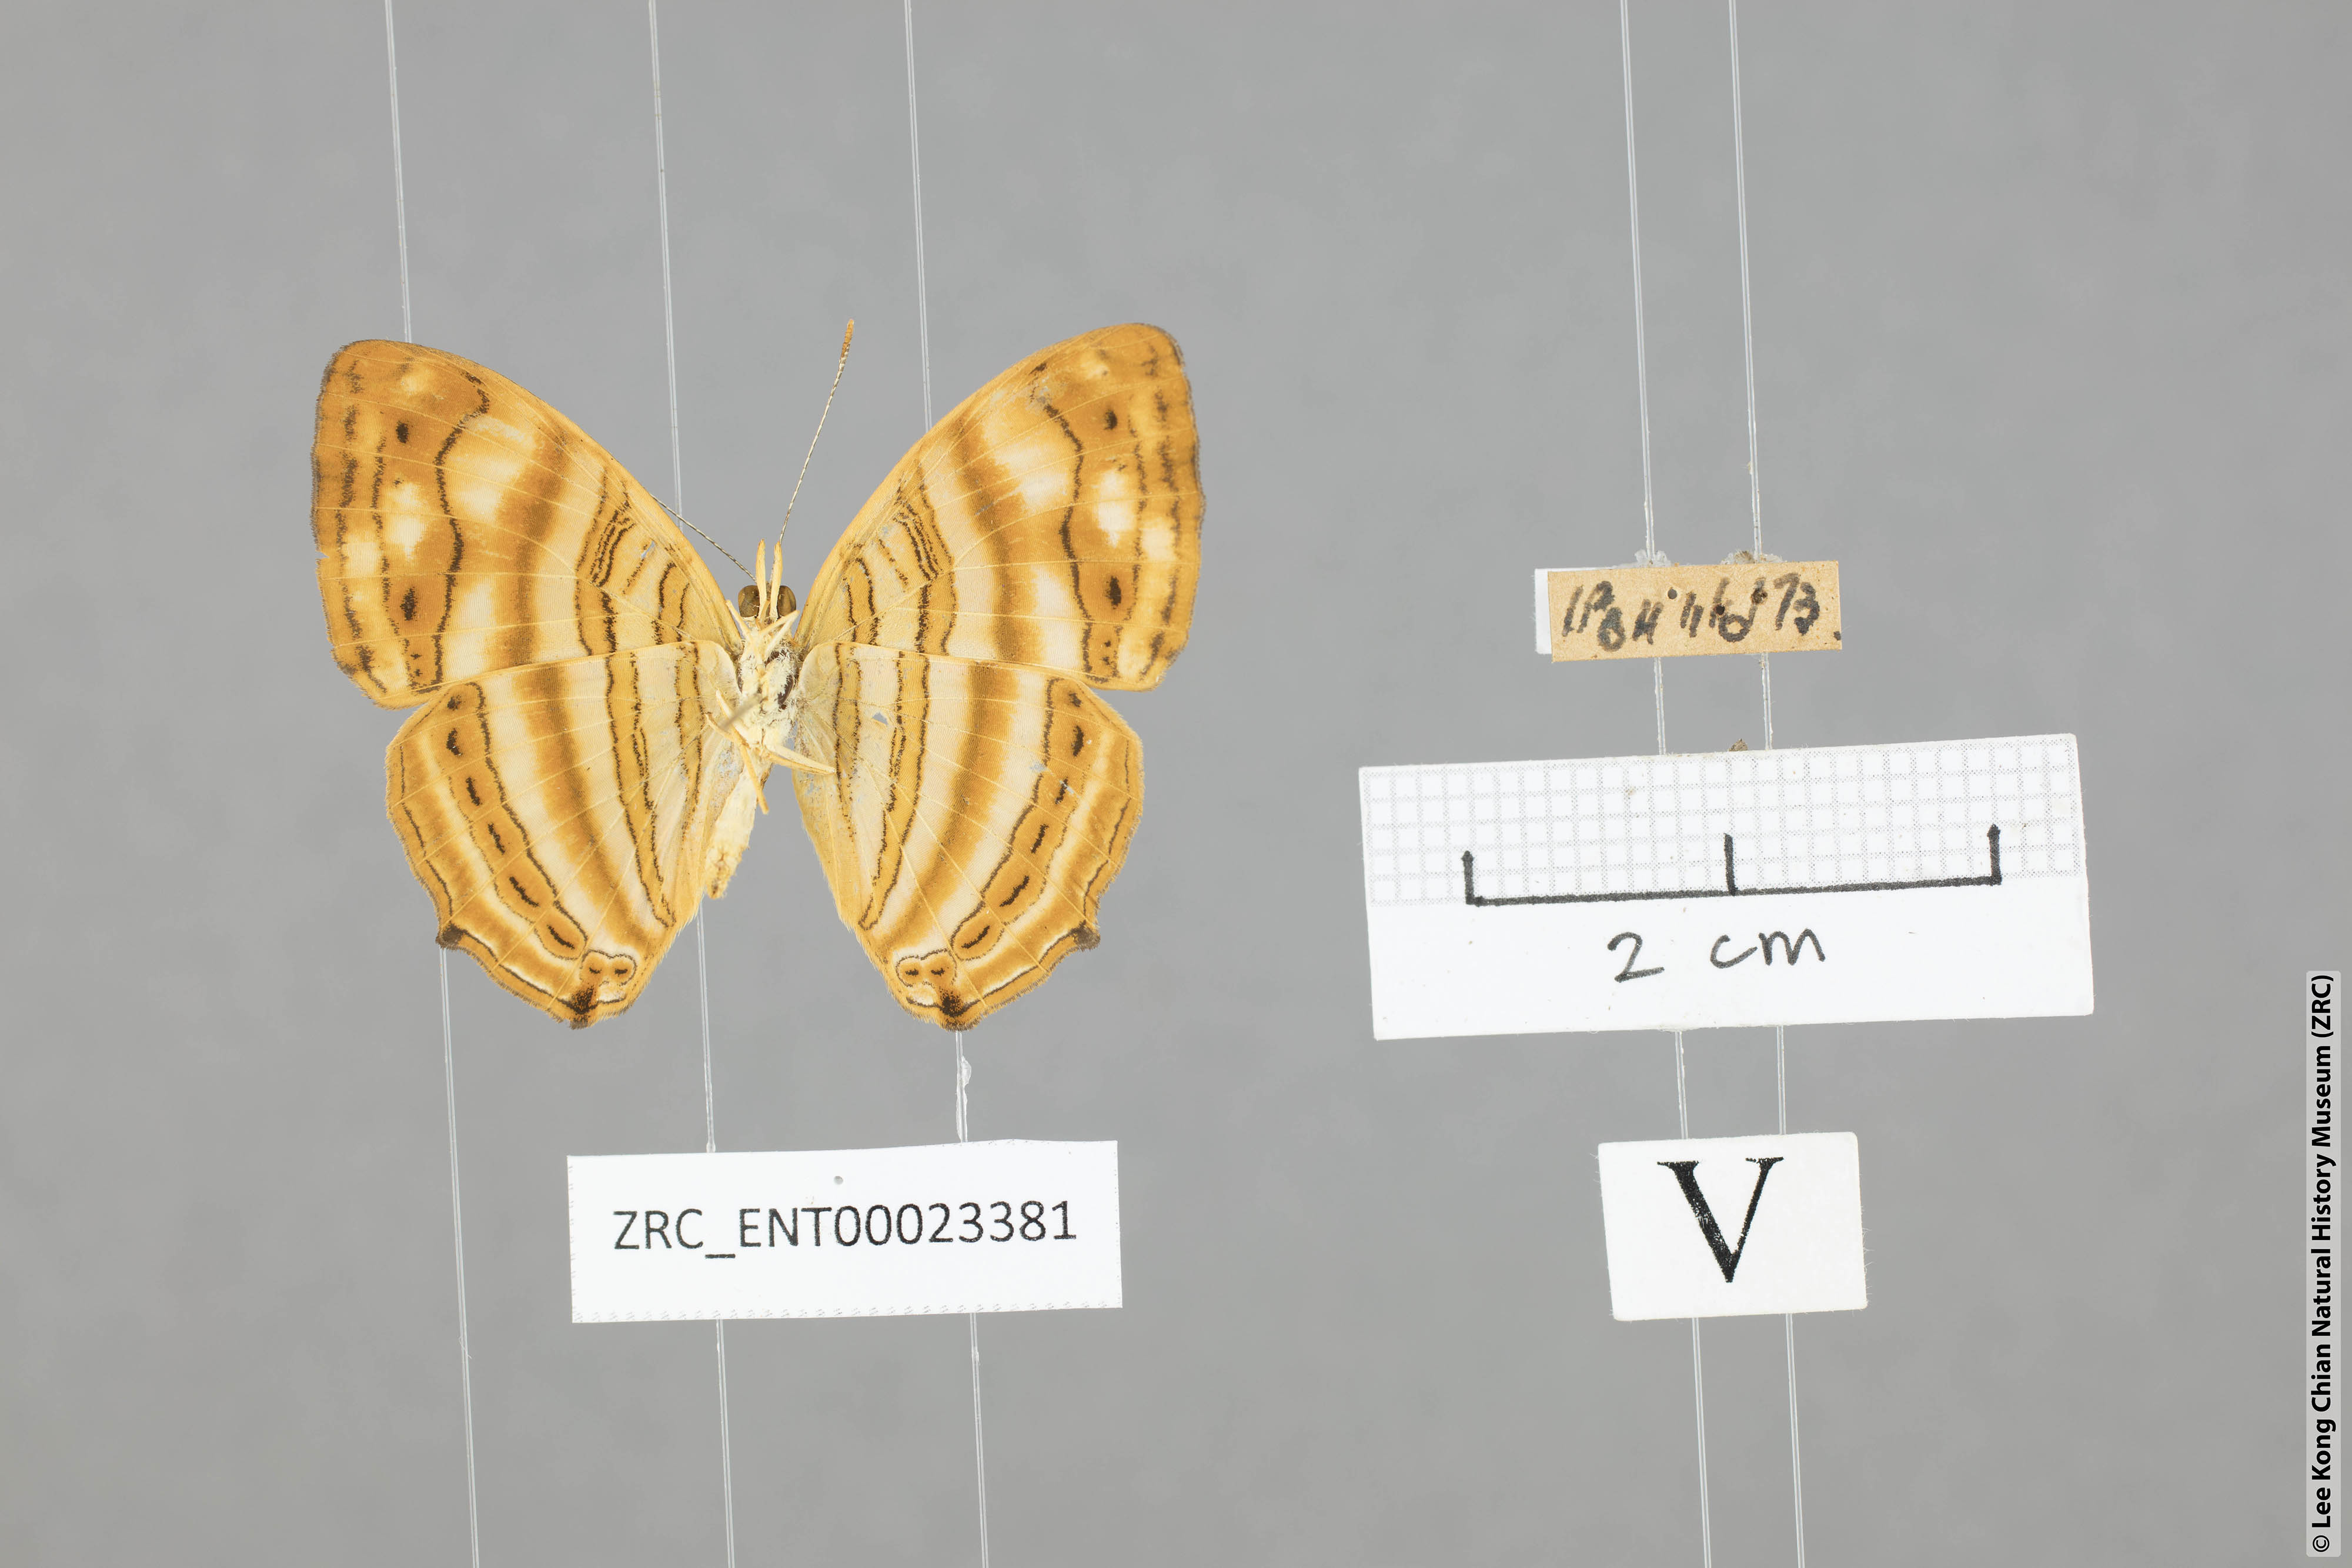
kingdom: Animalia
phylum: Arthropoda
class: Insecta
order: Lepidoptera
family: Nymphalidae
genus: Chersonesia
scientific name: Chersonesia rahria
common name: Wavy maplet
